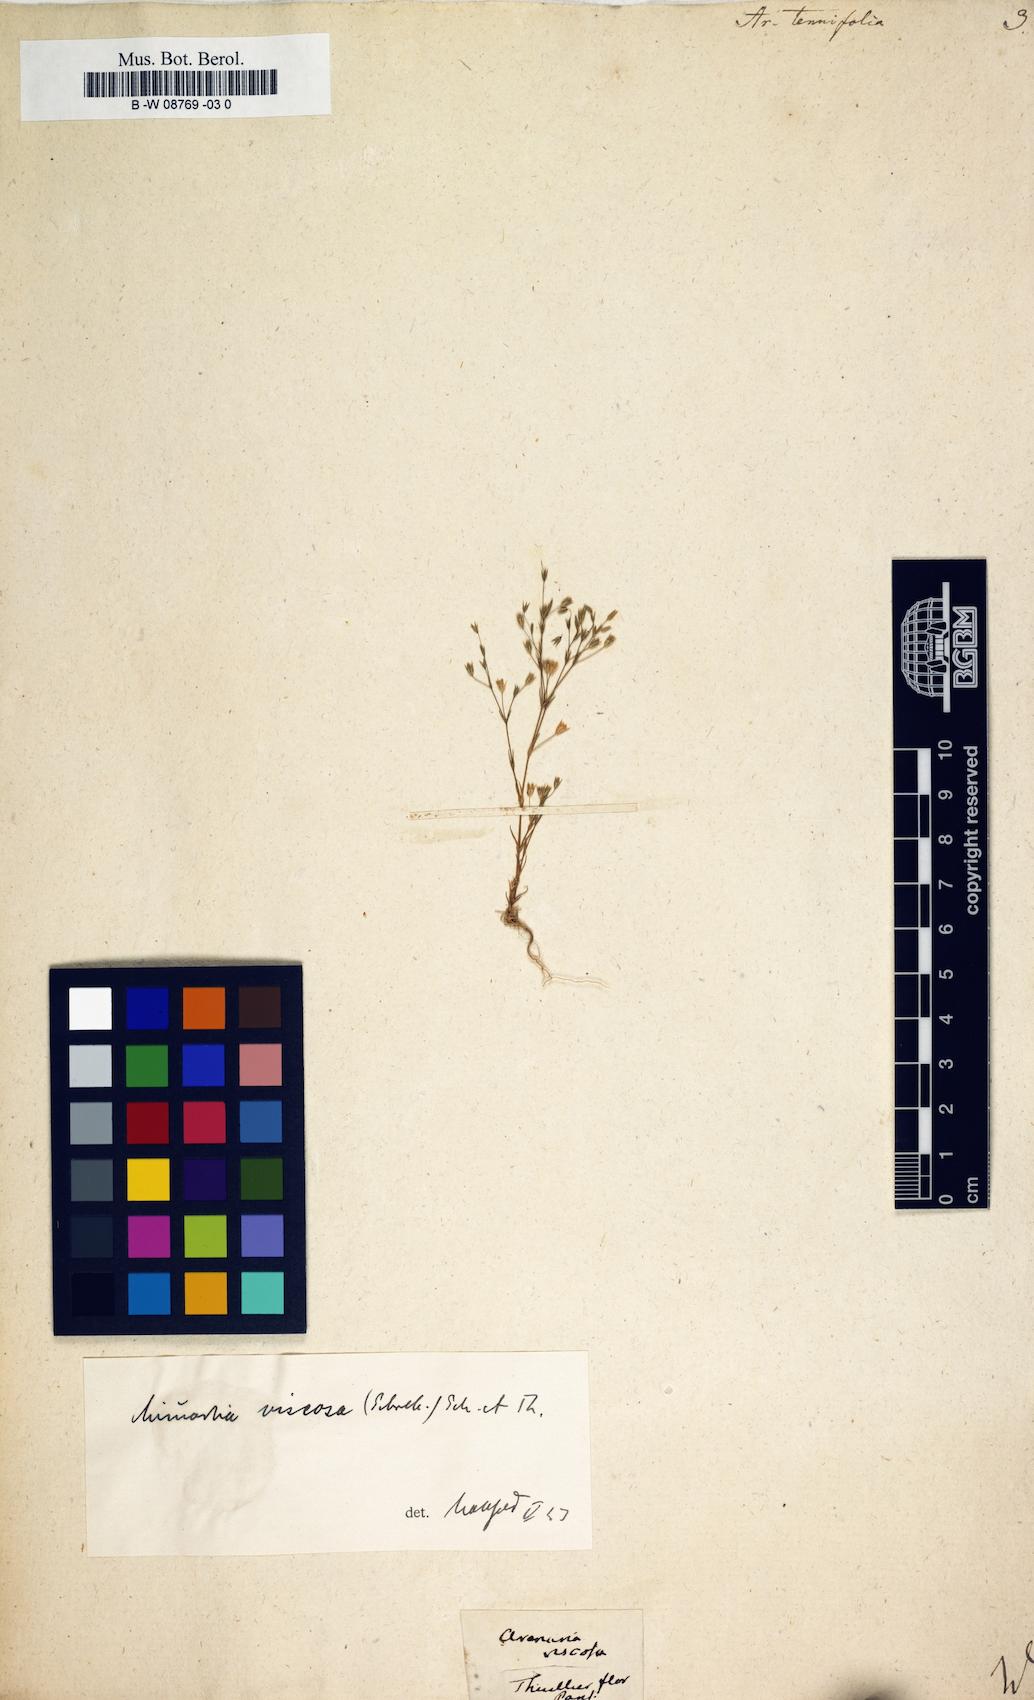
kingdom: Plantae
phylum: Tracheophyta
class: Magnoliopsida
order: Caryophyllales
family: Caryophyllaceae
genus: Sabulina
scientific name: Sabulina tenuifolia
